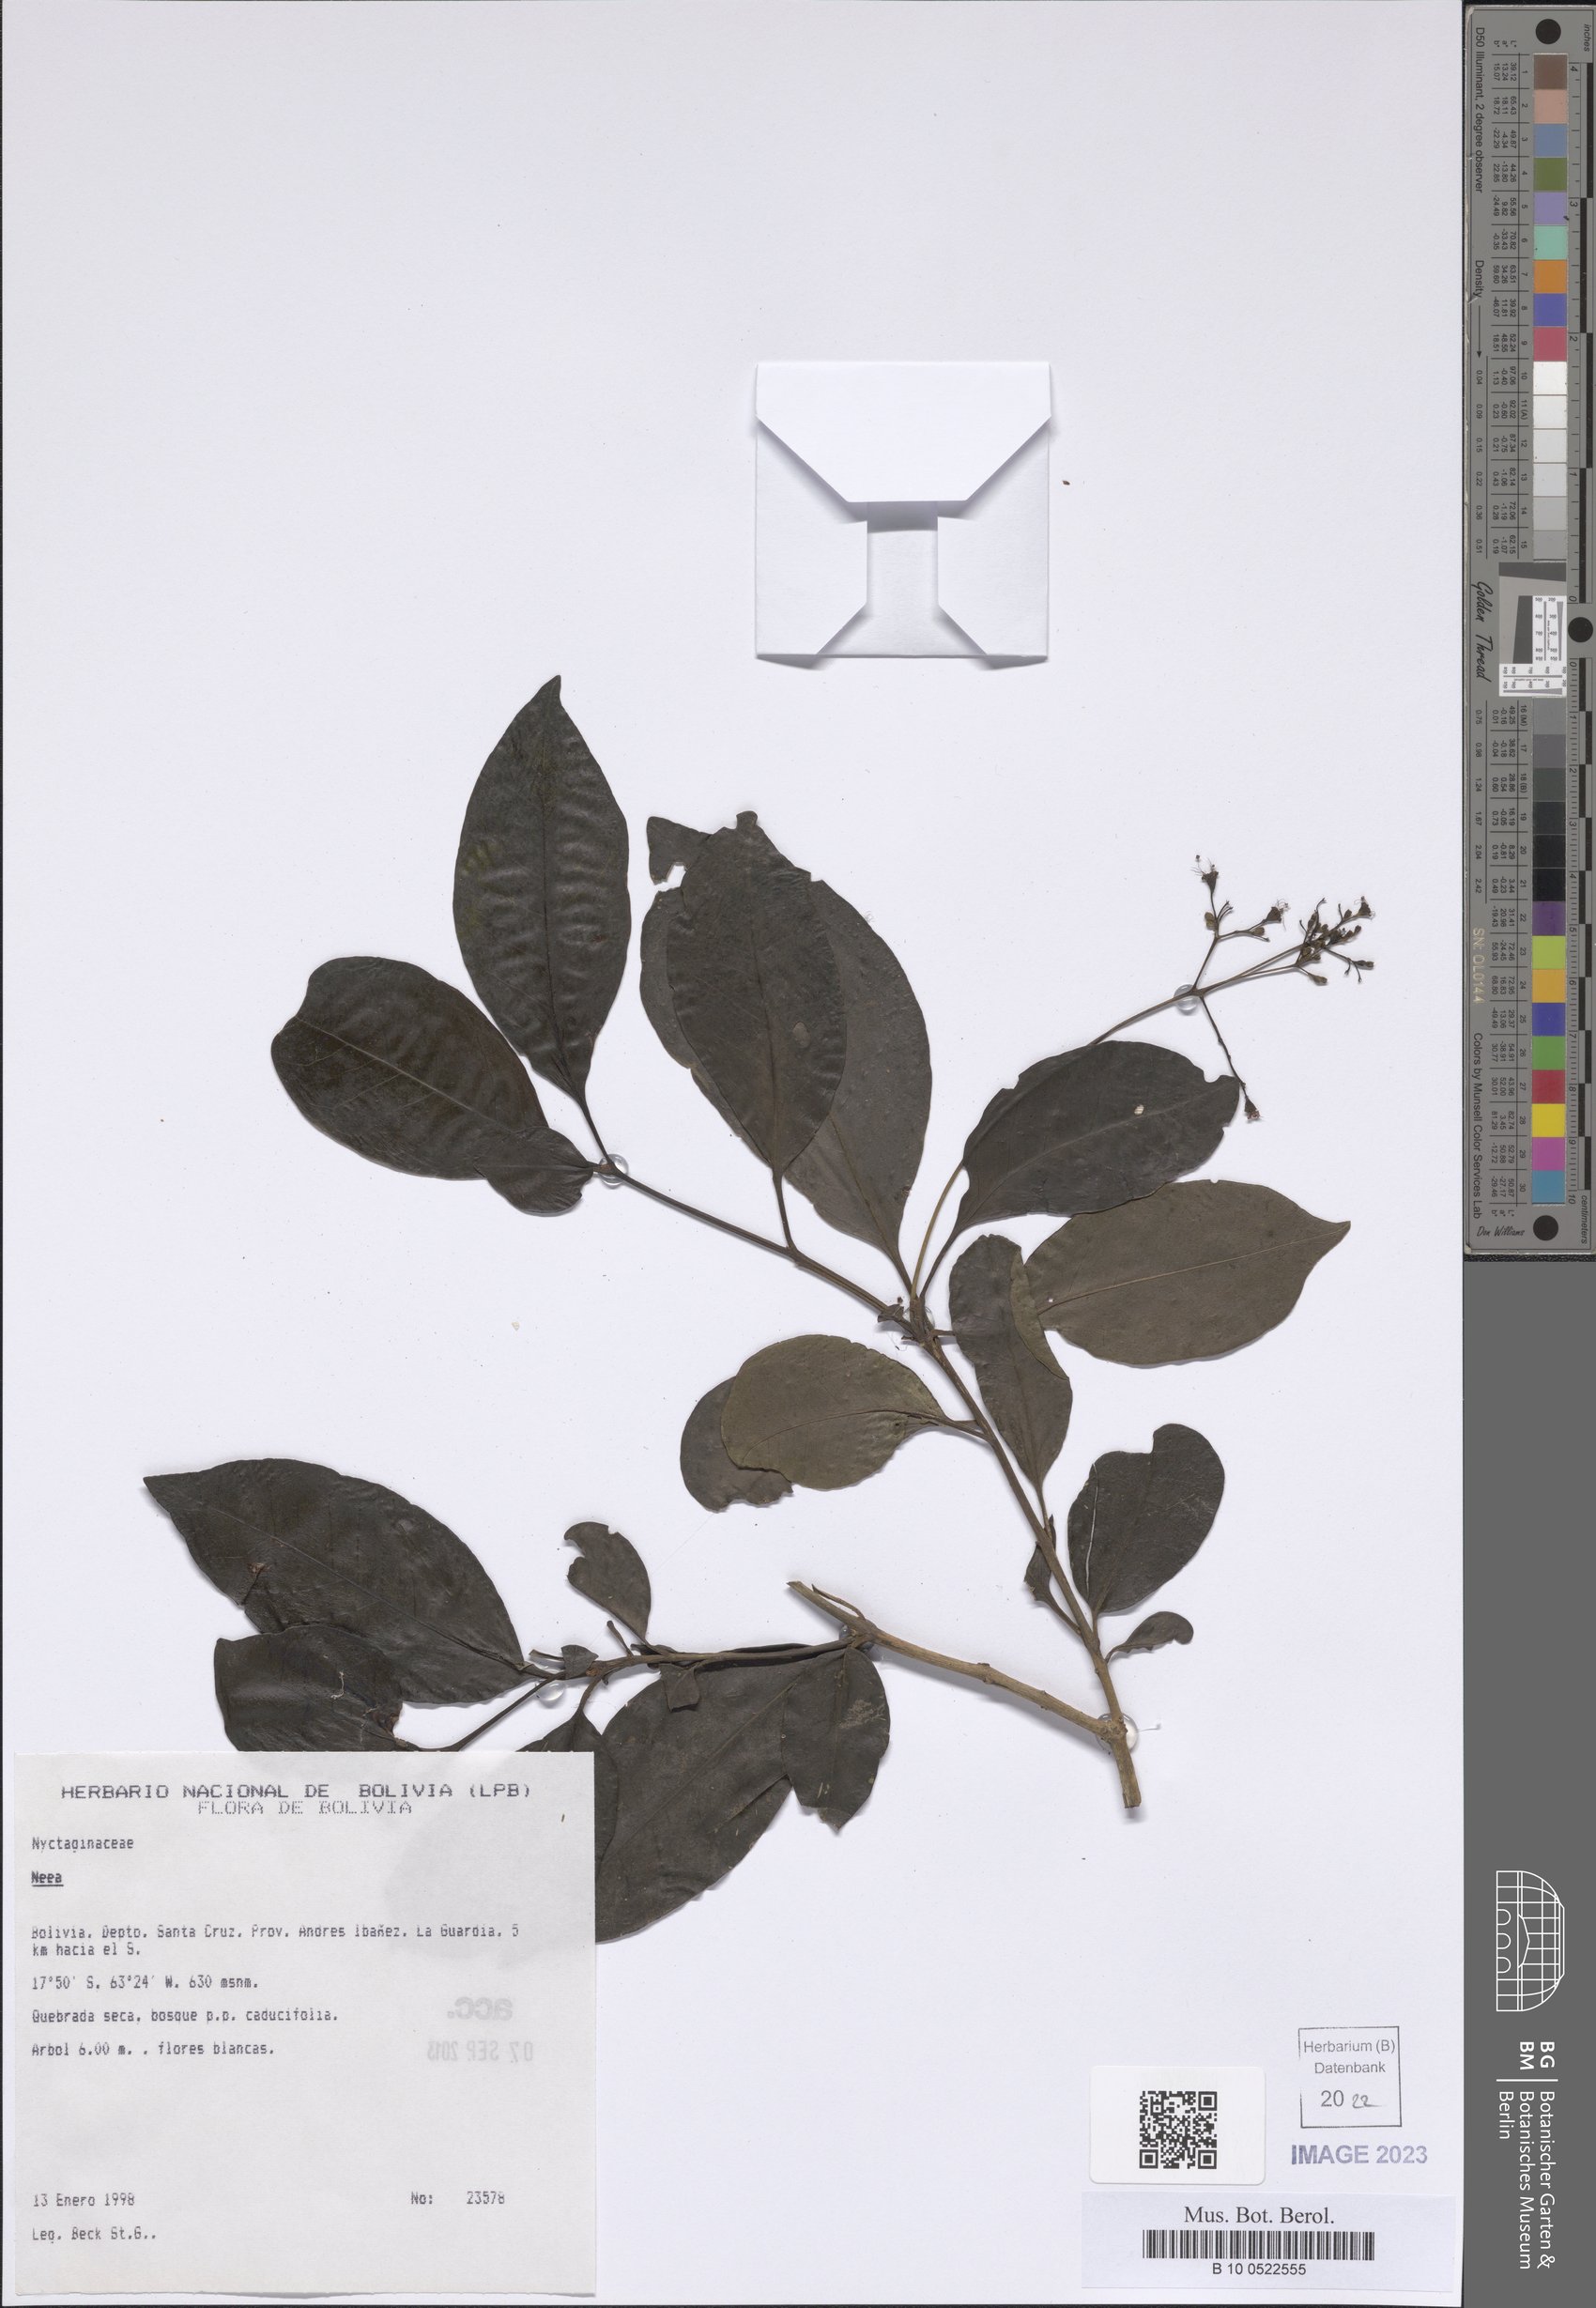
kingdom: Plantae
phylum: Tracheophyta
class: Magnoliopsida
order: Caryophyllales
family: Nyctaginaceae
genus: Neea
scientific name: Neea
